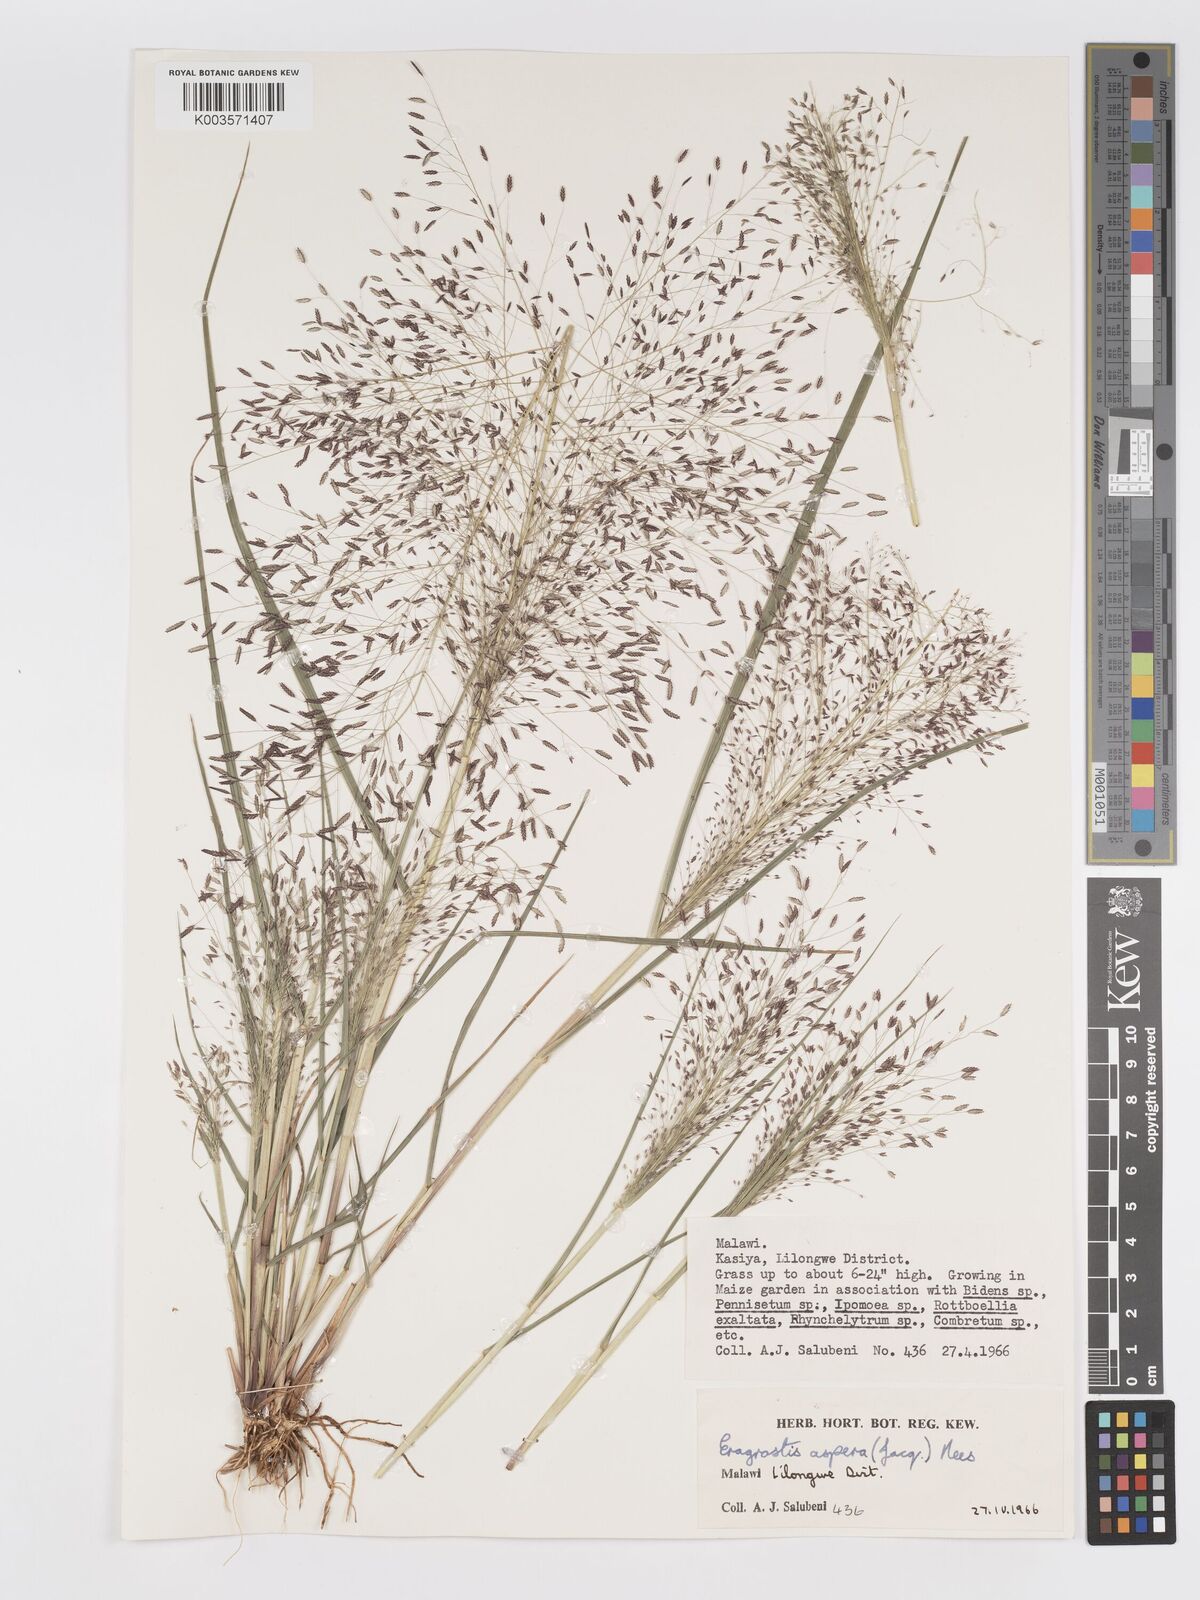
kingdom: Plantae
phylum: Tracheophyta
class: Liliopsida
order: Poales
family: Poaceae
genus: Eragrostis
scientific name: Eragrostis aspera
